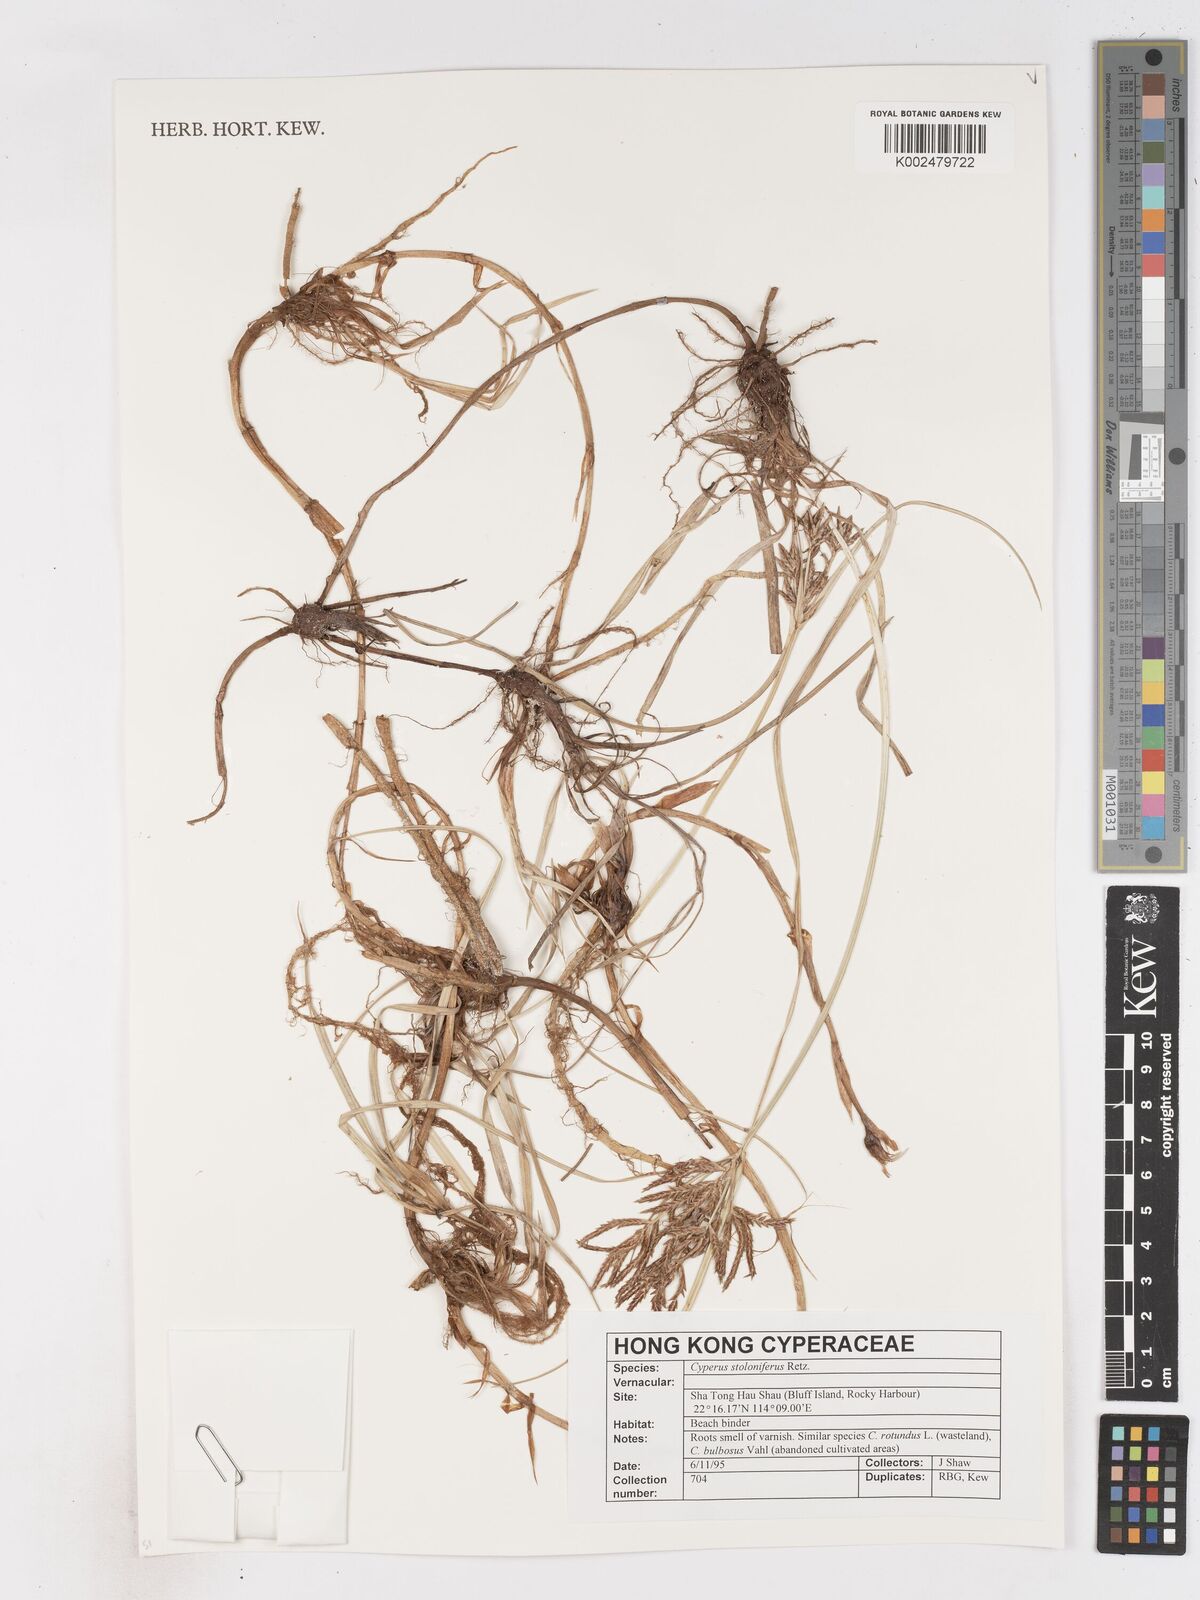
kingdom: Plantae
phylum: Tracheophyta
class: Liliopsida
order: Poales
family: Cyperaceae
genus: Cyperus
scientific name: Cyperus stolonifer
